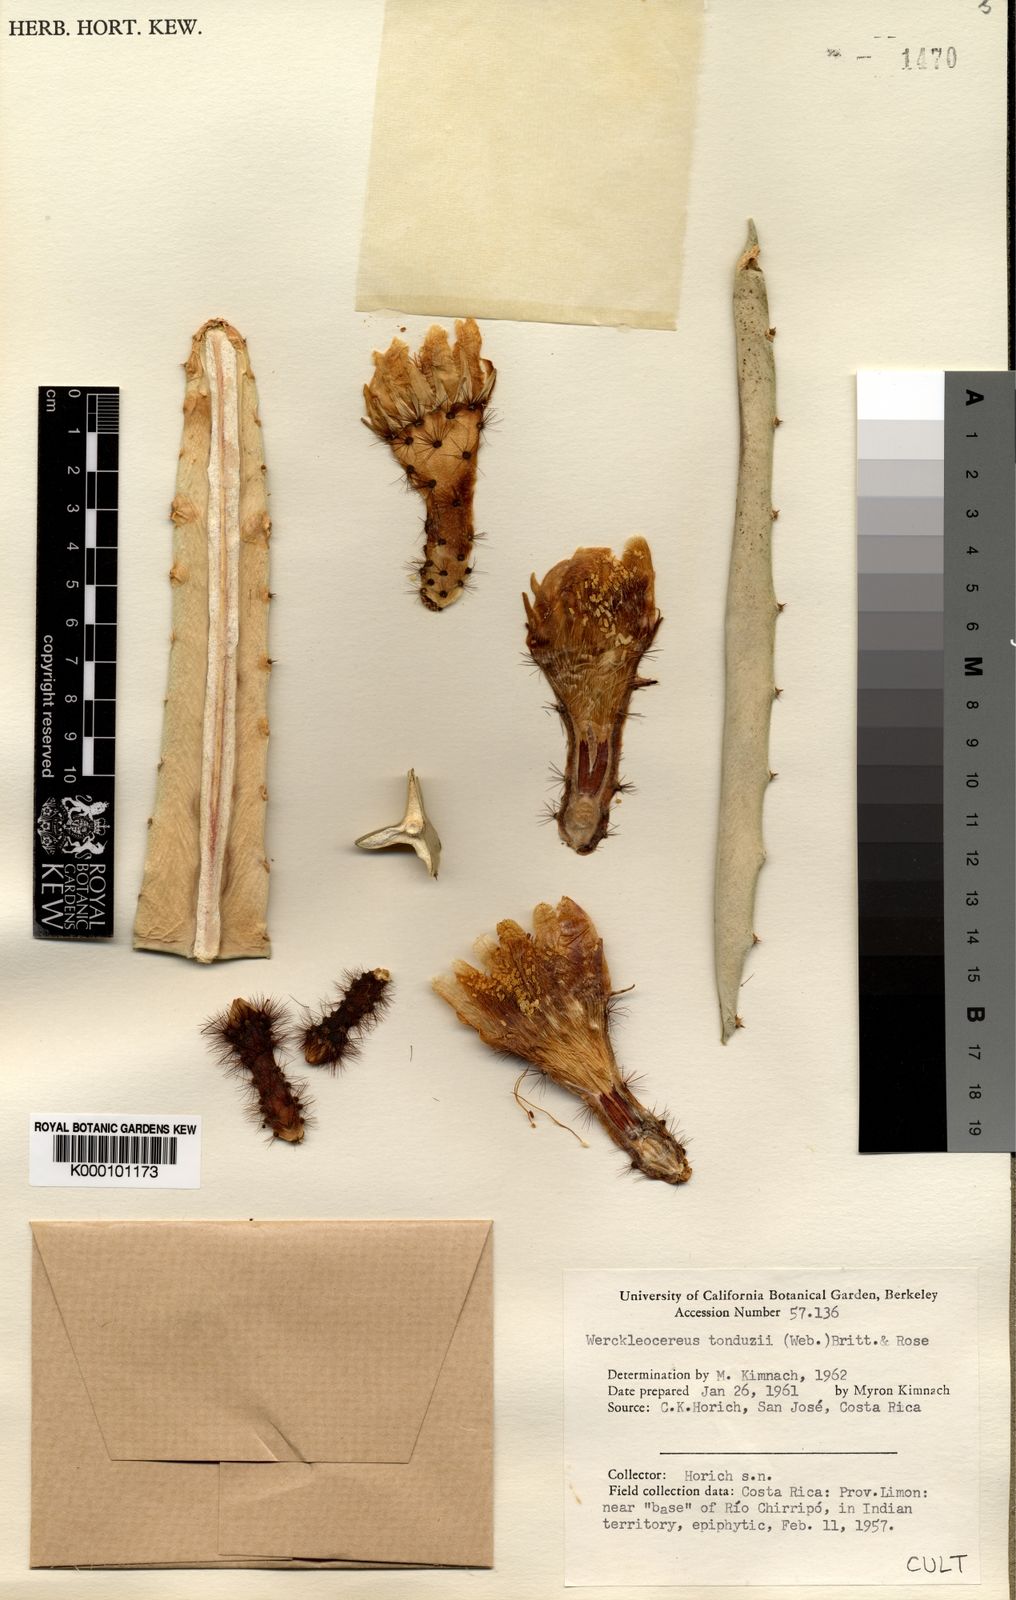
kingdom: Plantae
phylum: Tracheophyta
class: Magnoliopsida
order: Caryophyllales
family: Cactaceae
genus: Selenicereus
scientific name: Selenicereus tonduzii
